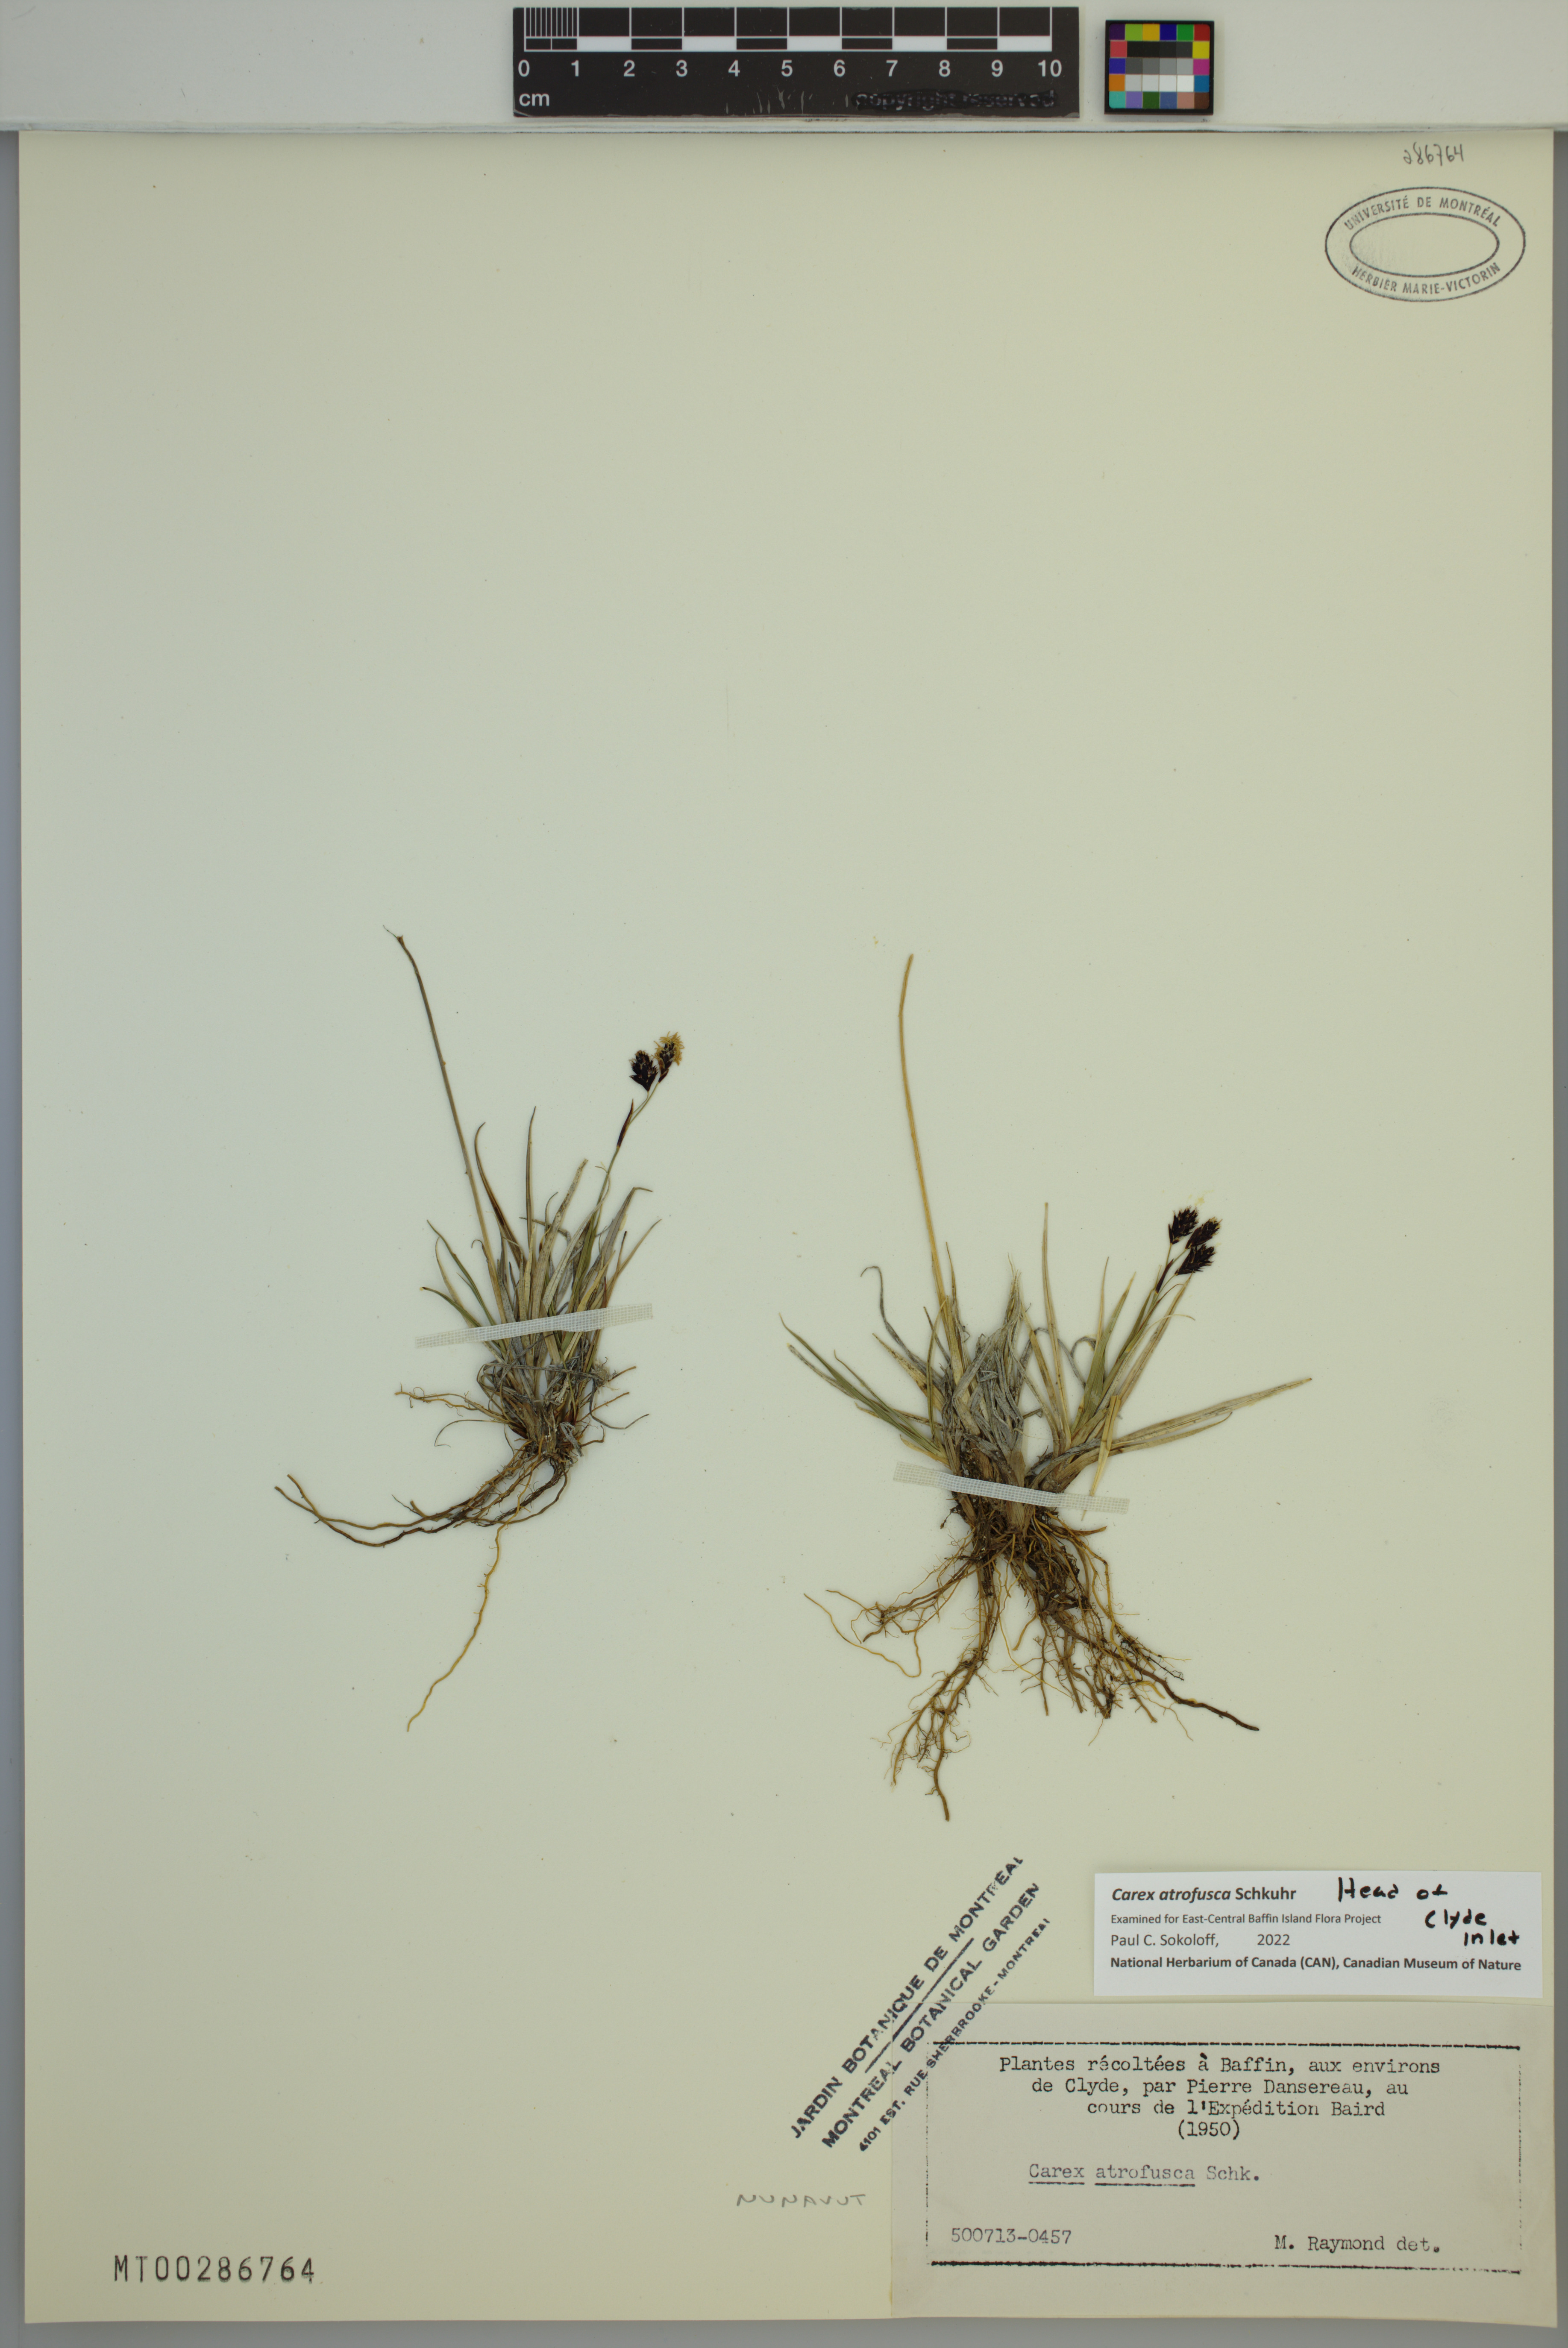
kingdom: Plantae
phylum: Tracheophyta
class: Liliopsida
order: Poales
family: Cyperaceae
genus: Carex
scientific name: Carex atrofusca
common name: Scorched alpine-sedge
